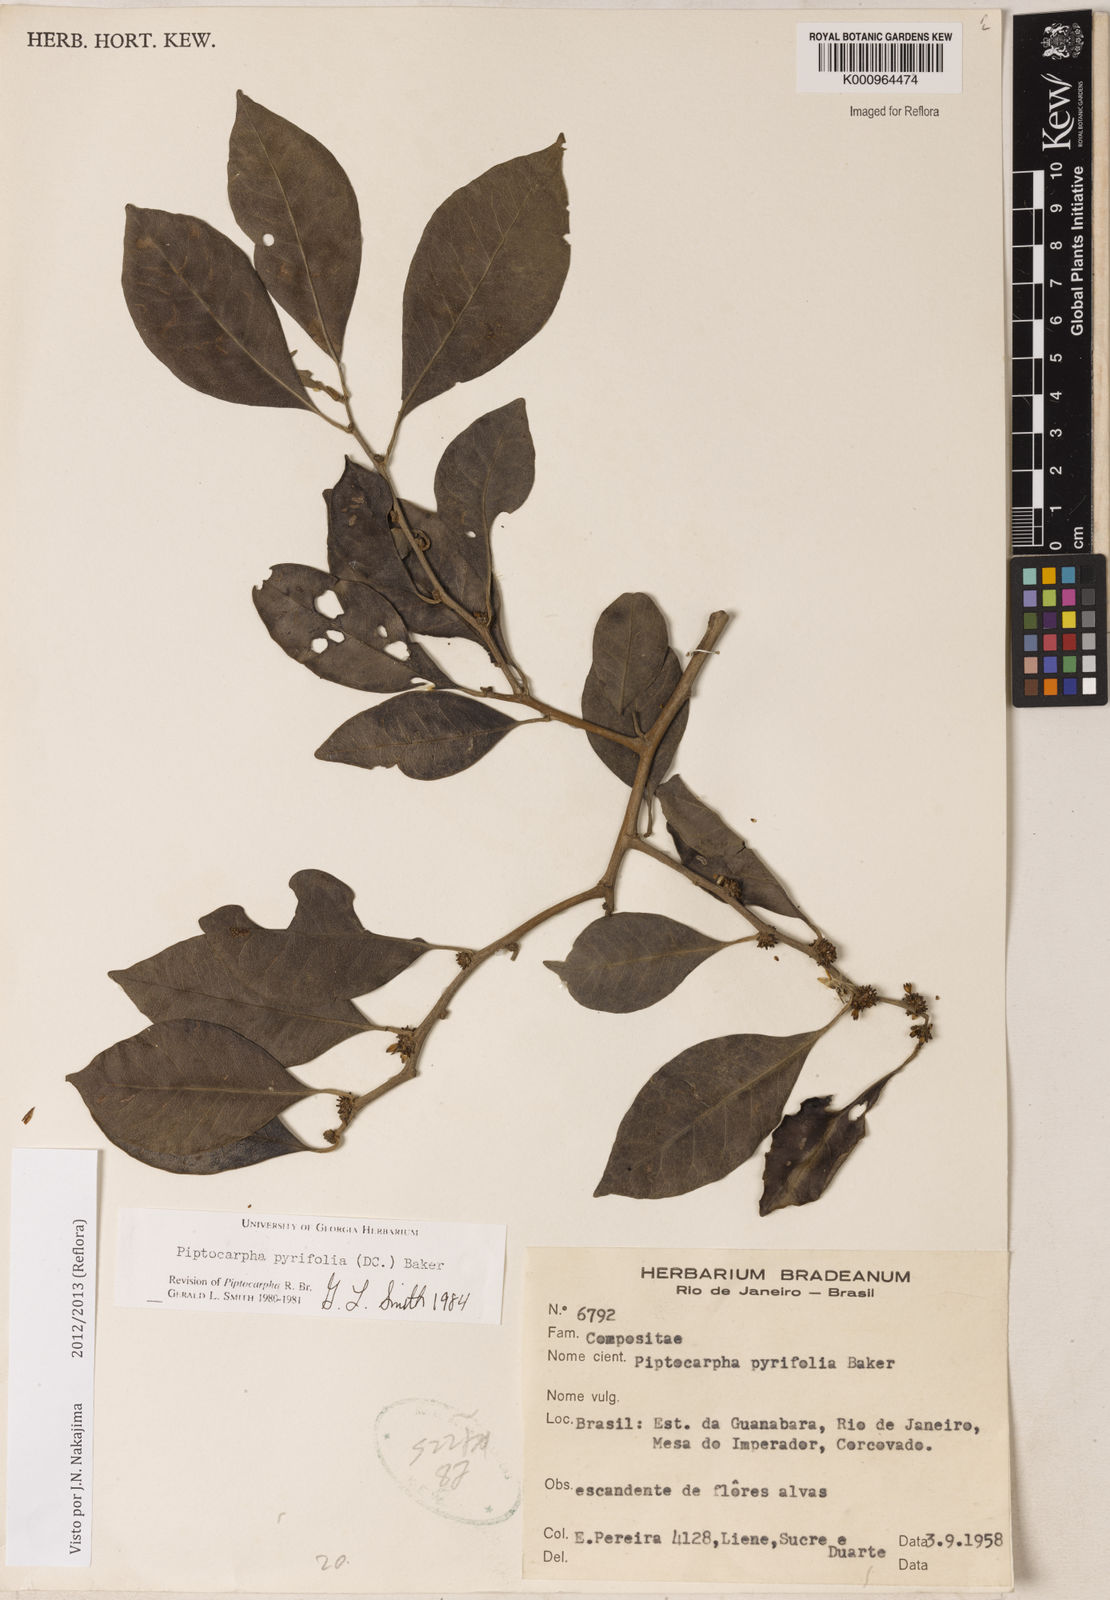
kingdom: Plantae
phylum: Tracheophyta
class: Magnoliopsida
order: Asterales
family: Asteraceae
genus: Piptocarpha
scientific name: Piptocarpha pyrifolia
